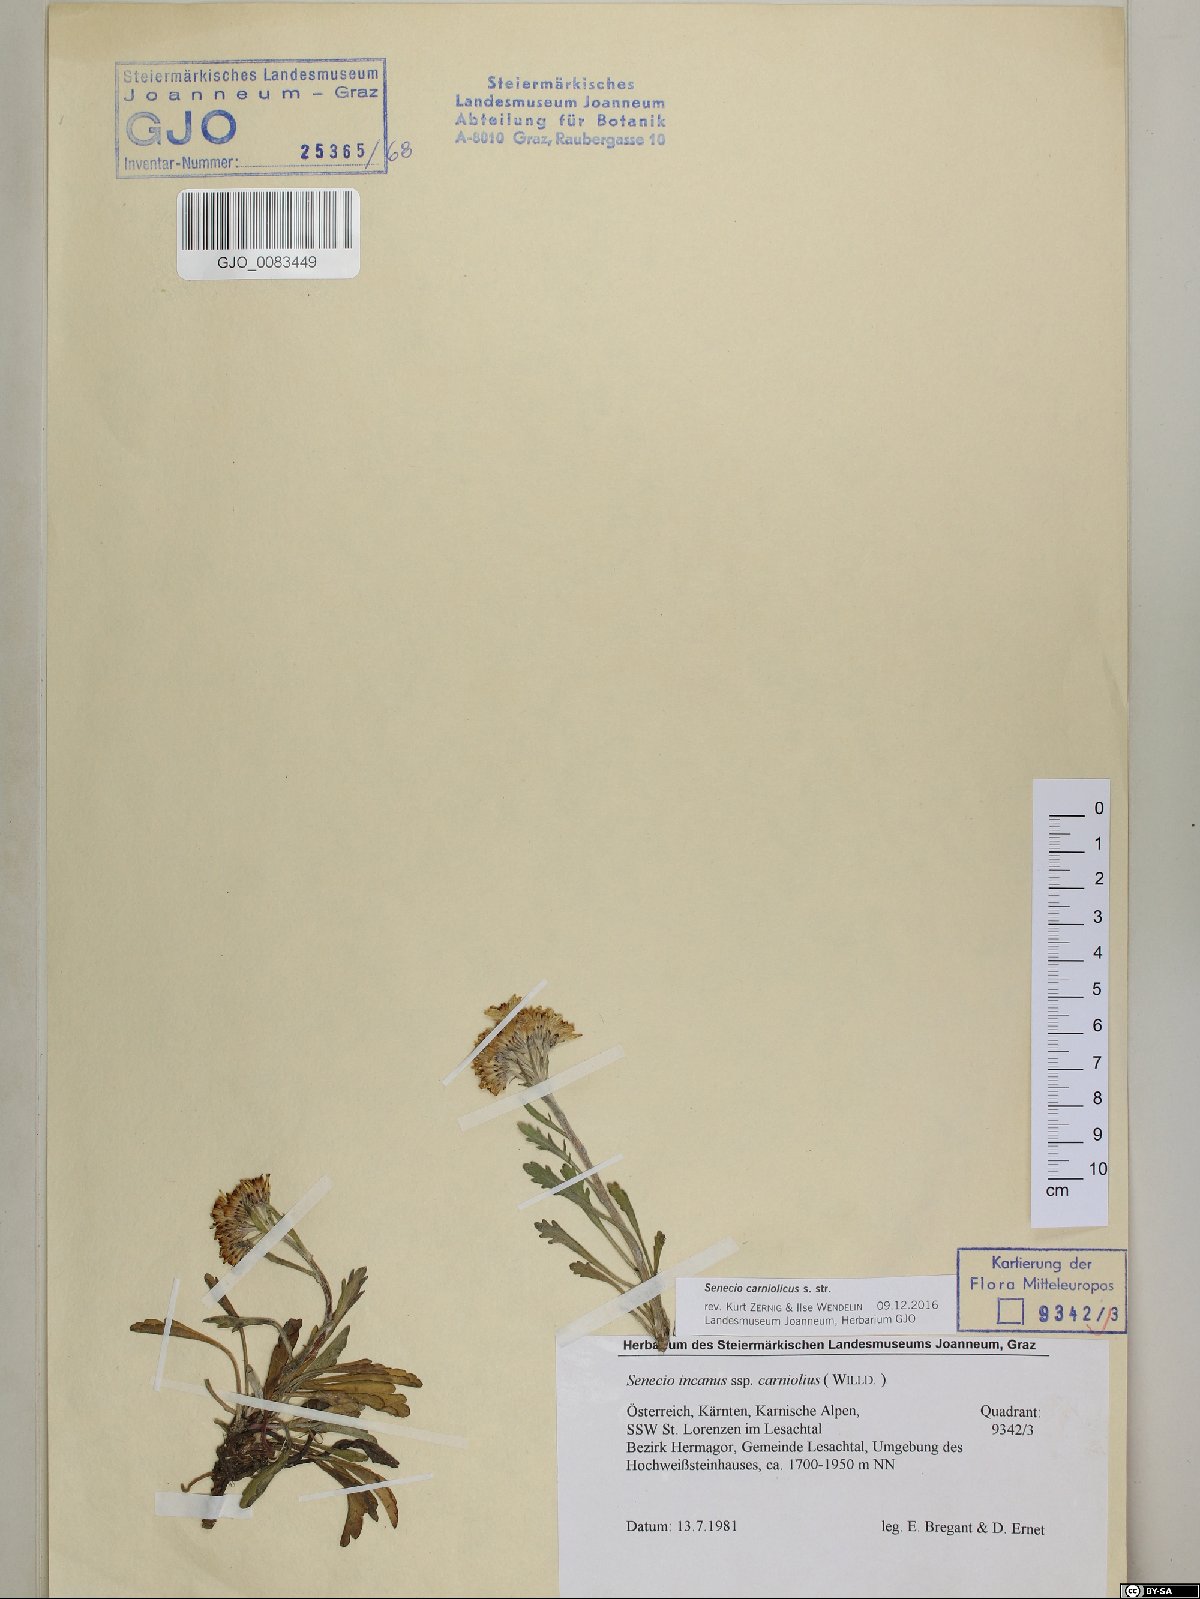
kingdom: Plantae
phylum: Tracheophyta
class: Magnoliopsida
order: Asterales
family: Asteraceae
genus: Jacobaea
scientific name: Jacobaea carniolica
